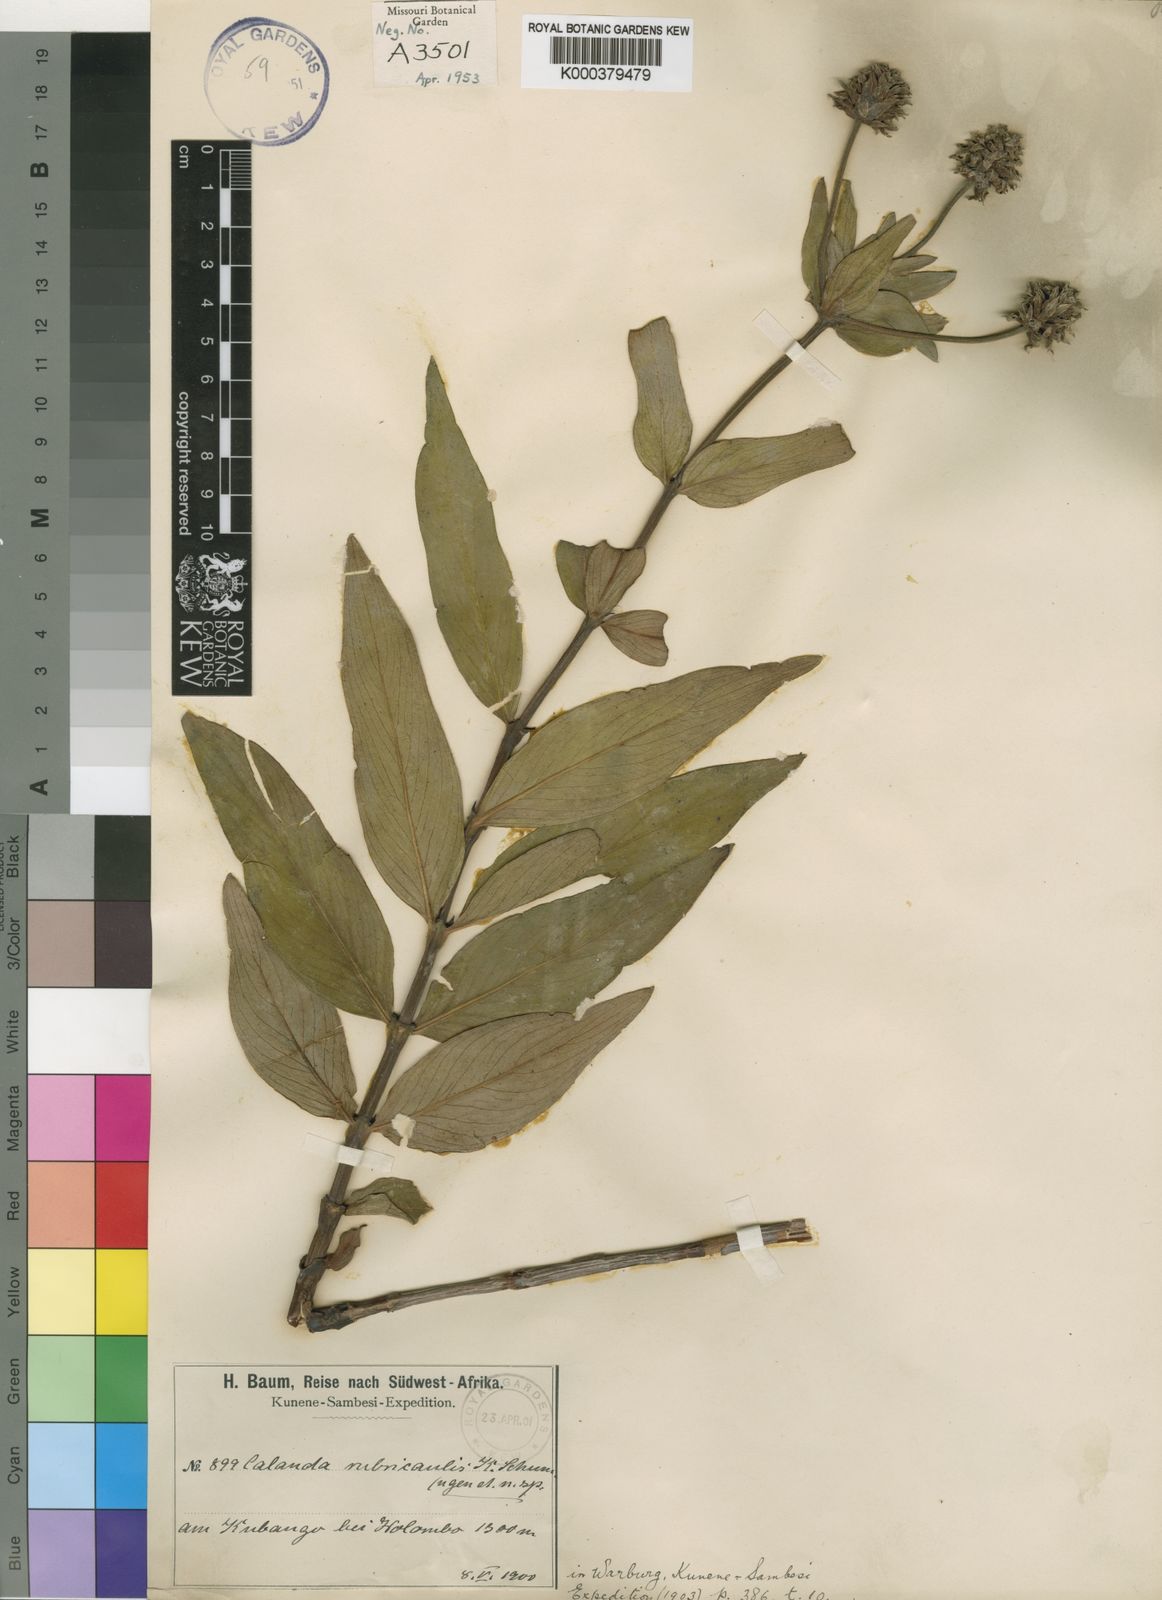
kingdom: Plantae
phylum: Tracheophyta
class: Magnoliopsida
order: Gentianales
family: Rubiaceae
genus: Pentanisia
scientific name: Pentanisia rubricaulis
